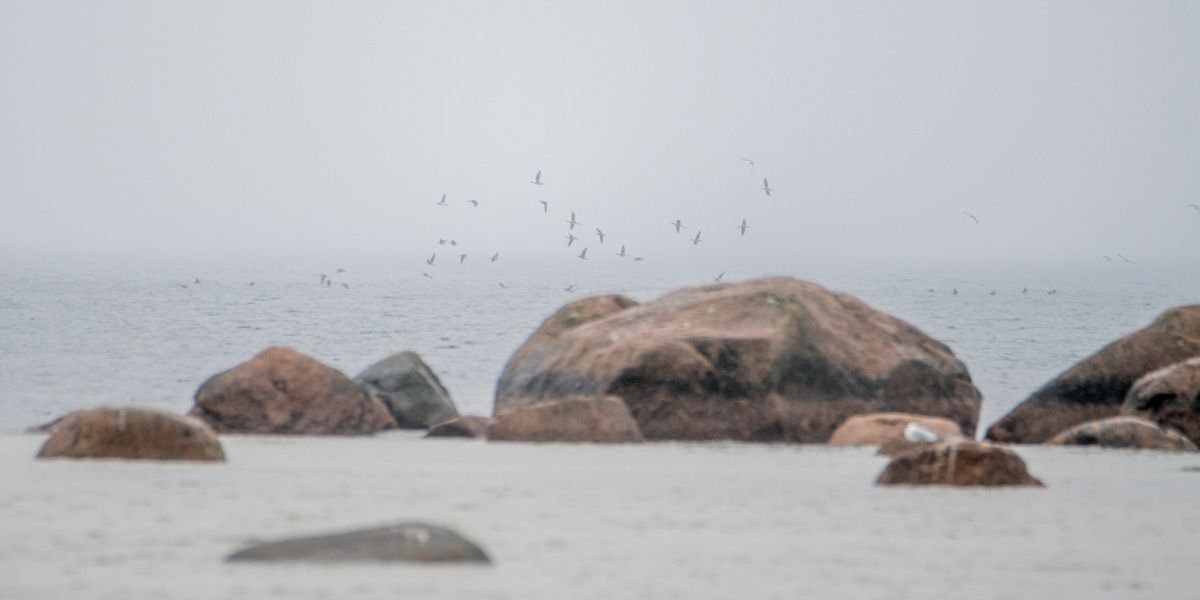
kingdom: Animalia
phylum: Chordata
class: Aves
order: Anseriformes
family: Anatidae
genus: Clangula
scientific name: Clangula hyemalis
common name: Long-tailed duck
